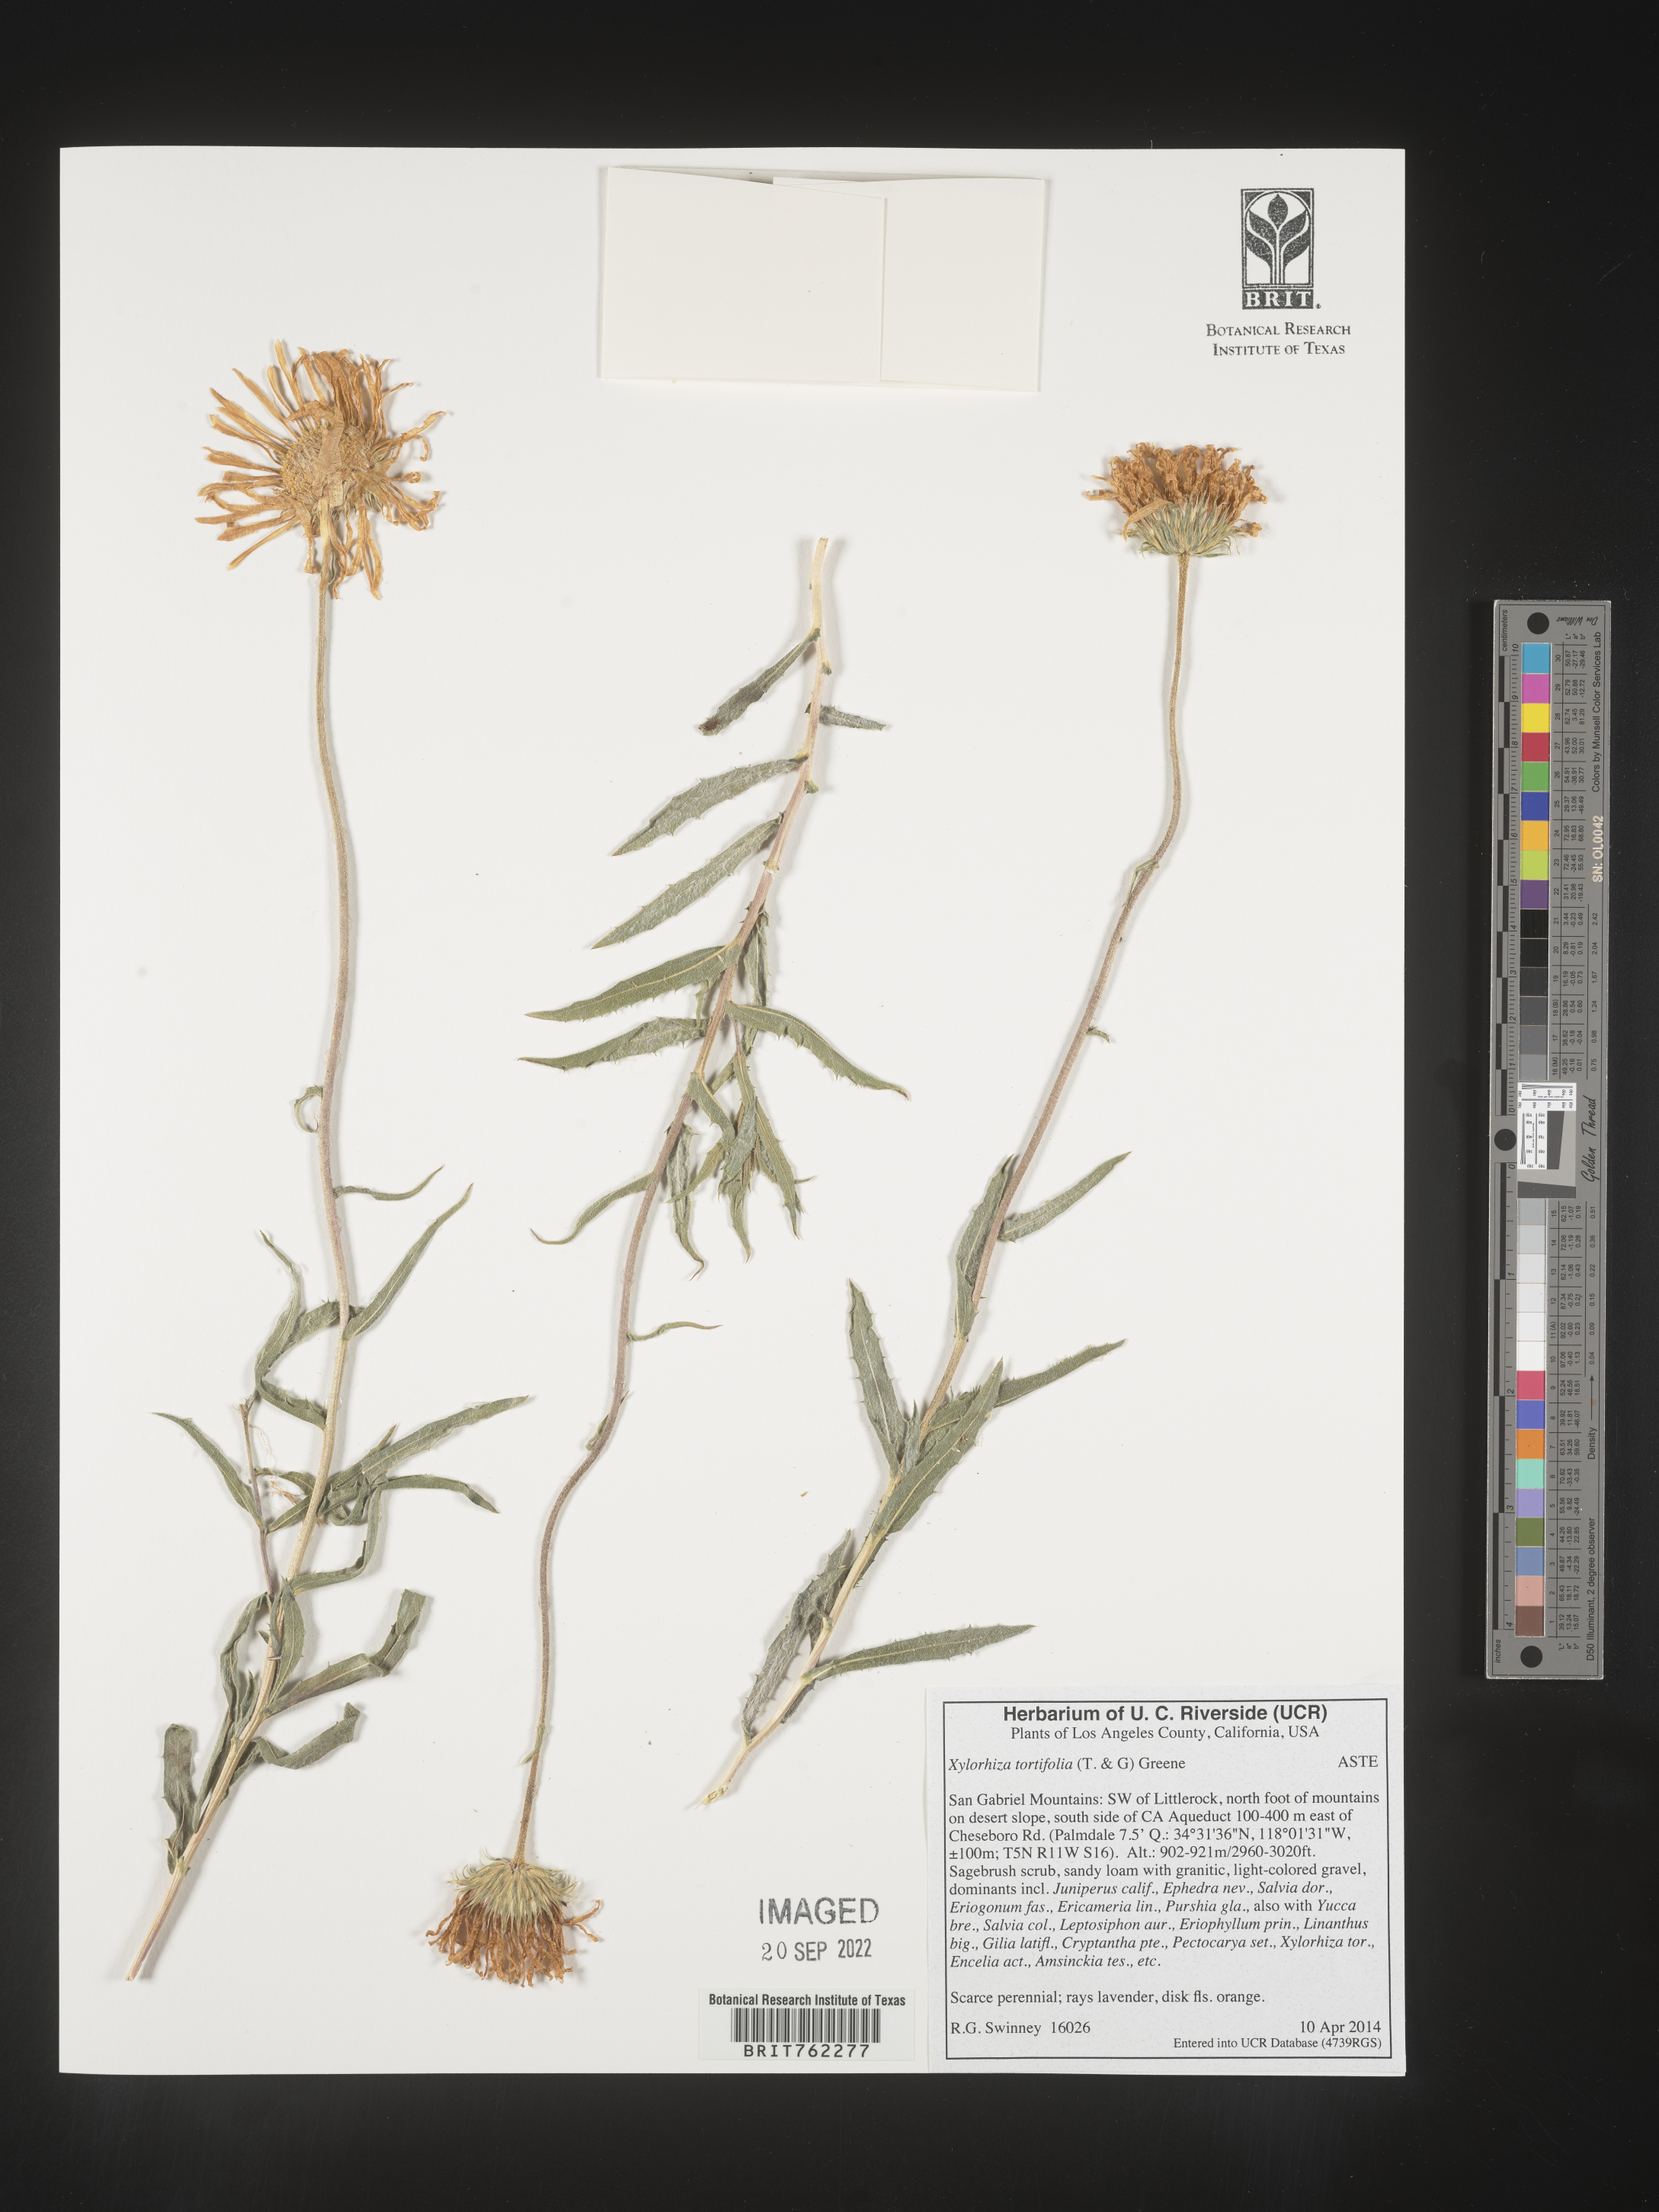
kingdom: Plantae
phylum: Tracheophyta
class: Magnoliopsida
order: Asterales
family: Asteraceae
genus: Xylorhiza
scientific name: Xylorhiza
